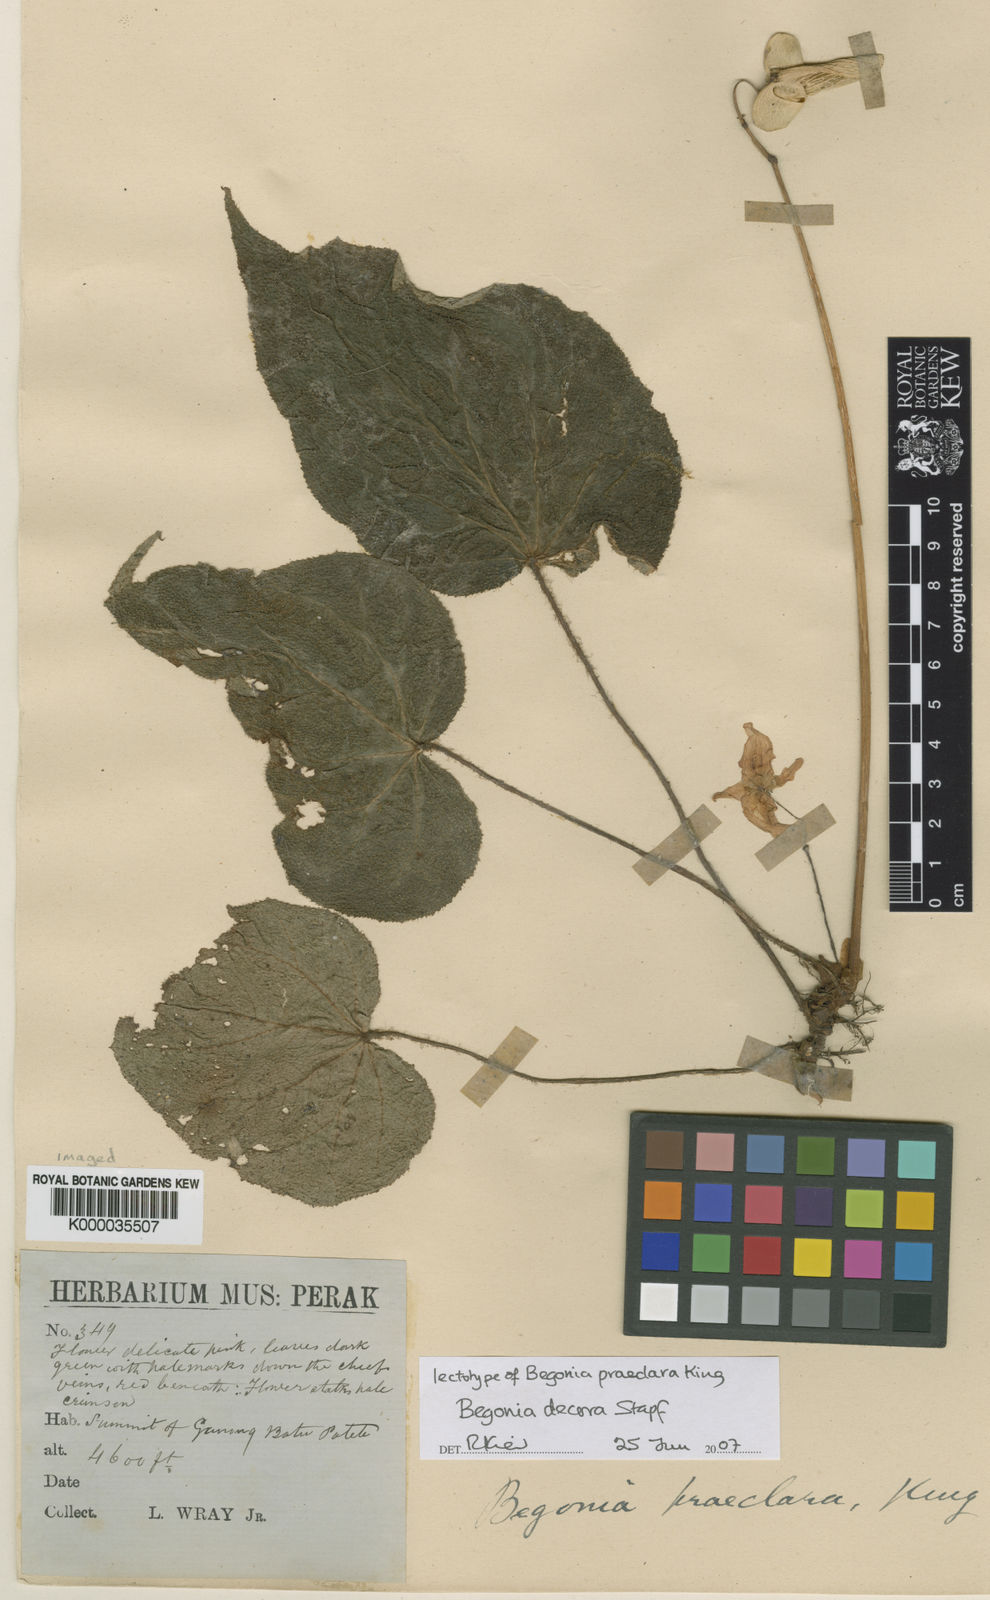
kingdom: Plantae
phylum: Tracheophyta
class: Magnoliopsida
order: Cucurbitales
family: Begoniaceae
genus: Begonia
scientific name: Begonia decora
